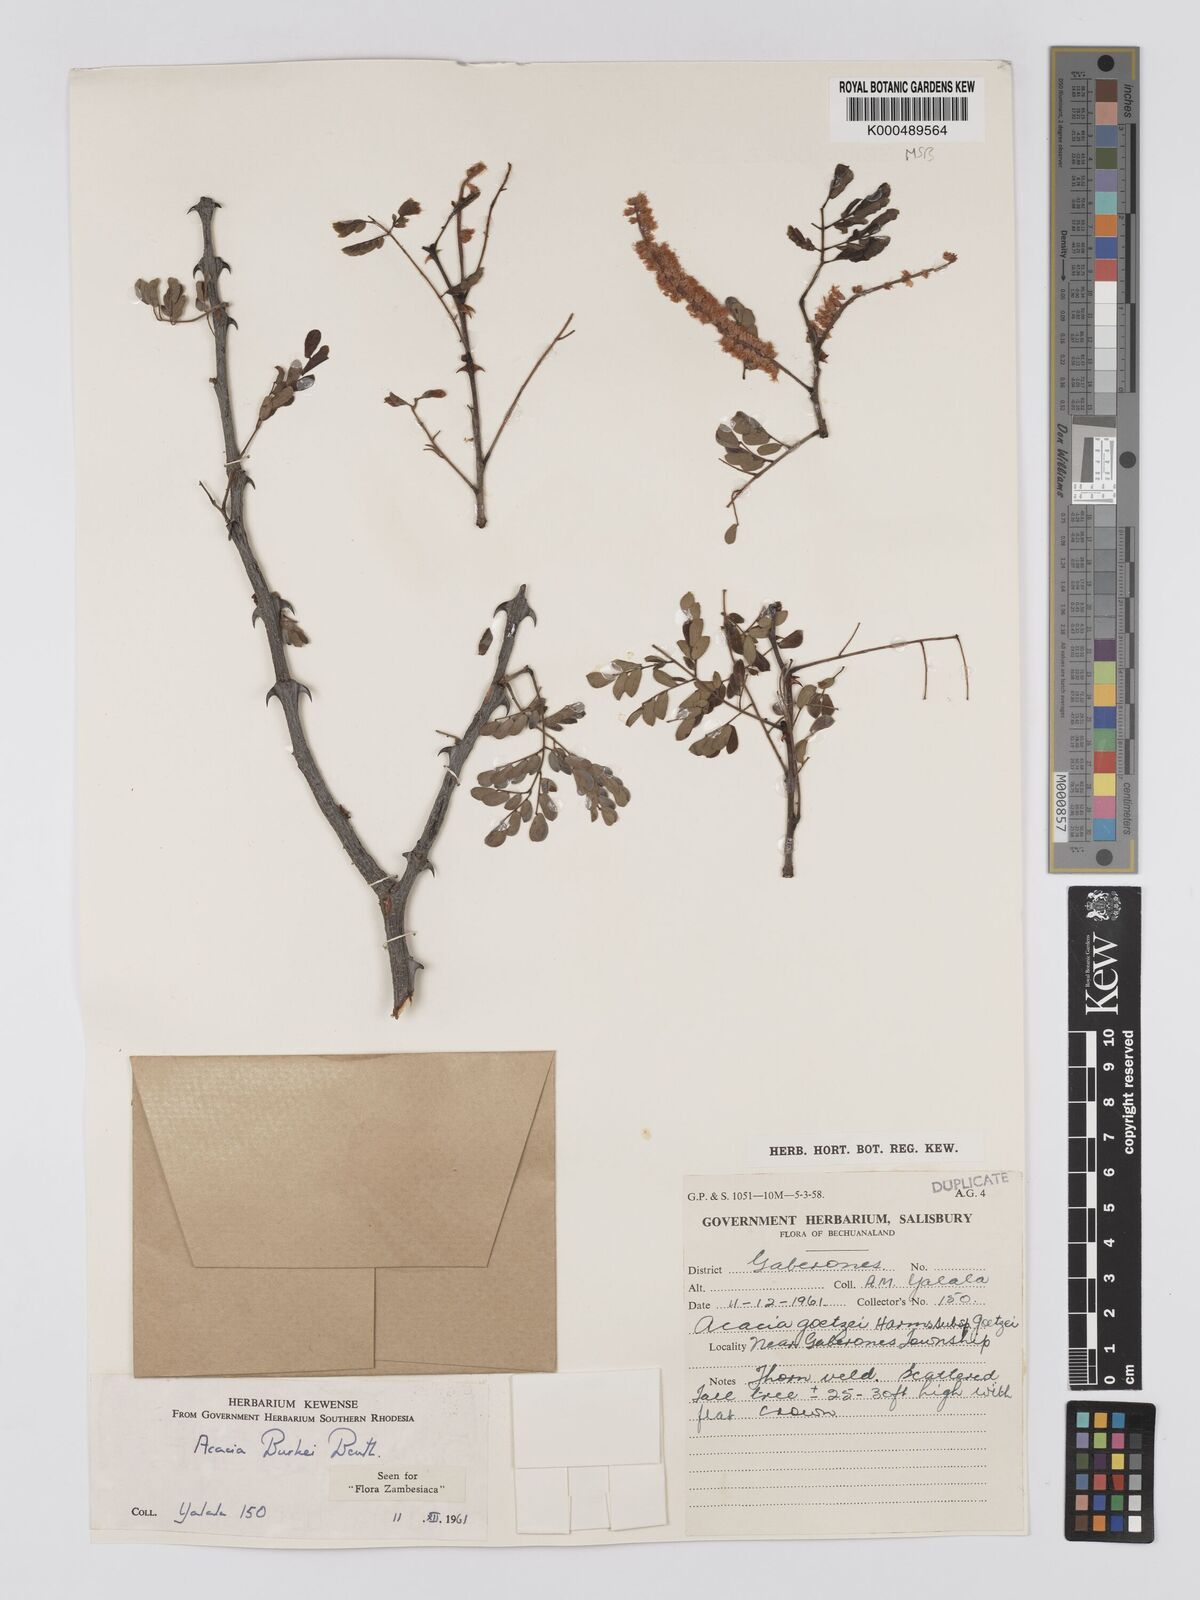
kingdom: Plantae
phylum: Tracheophyta
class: Magnoliopsida
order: Fabales
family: Fabaceae
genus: Senegalia
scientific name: Senegalia burkei
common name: Black monkey thorn
